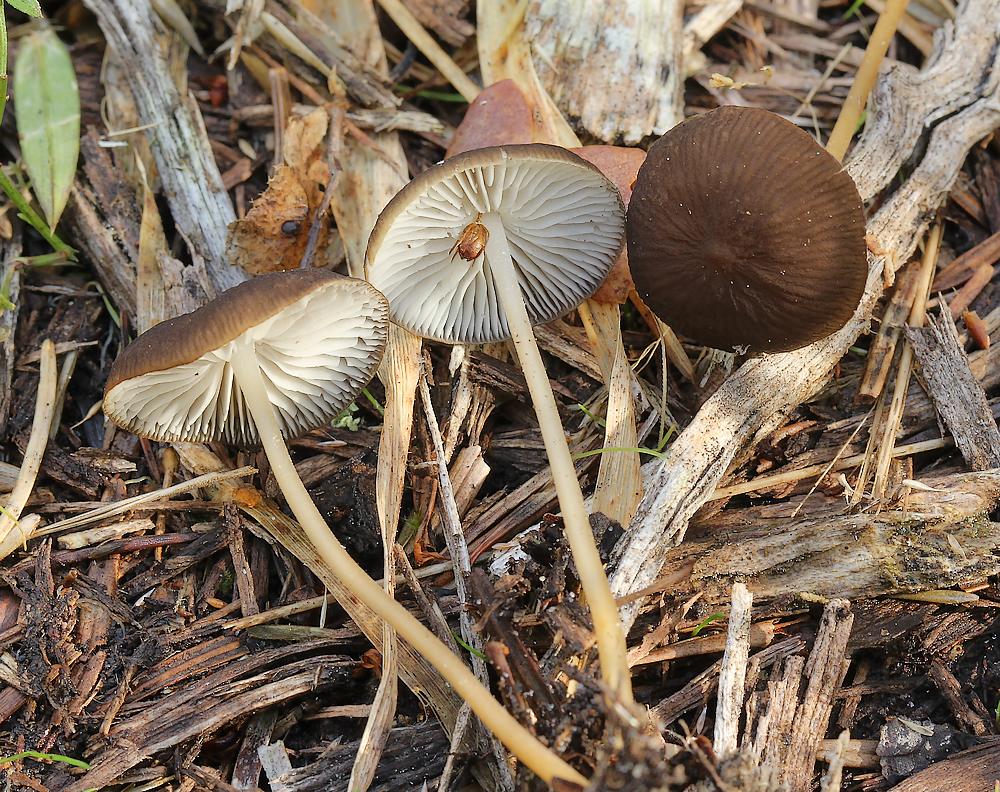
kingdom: Fungi
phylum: Basidiomycota
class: Agaricomycetes
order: Agaricales
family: Physalacriaceae
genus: Strobilurus
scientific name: Strobilurus stephanocystis
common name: fyrre-koglehat
